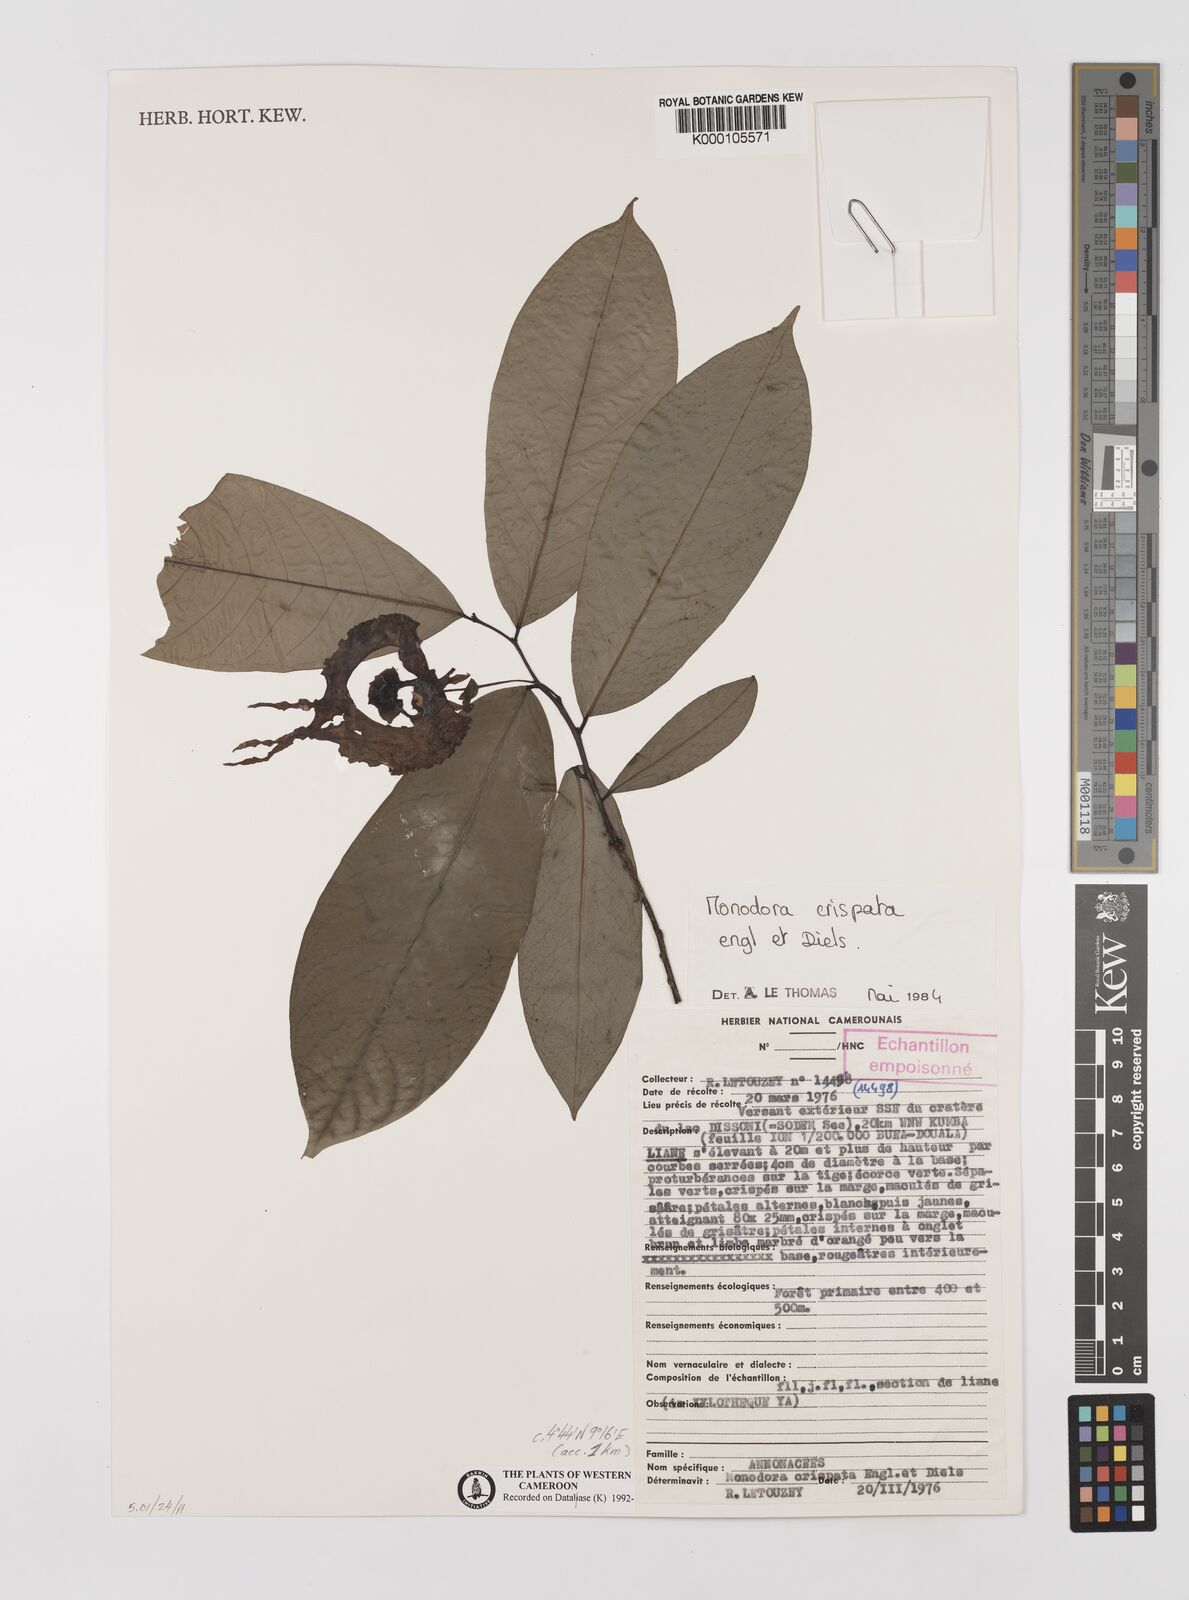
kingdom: Plantae
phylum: Tracheophyta
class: Magnoliopsida
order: Magnoliales
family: Annonaceae
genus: Monodora
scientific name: Monodora crispata
